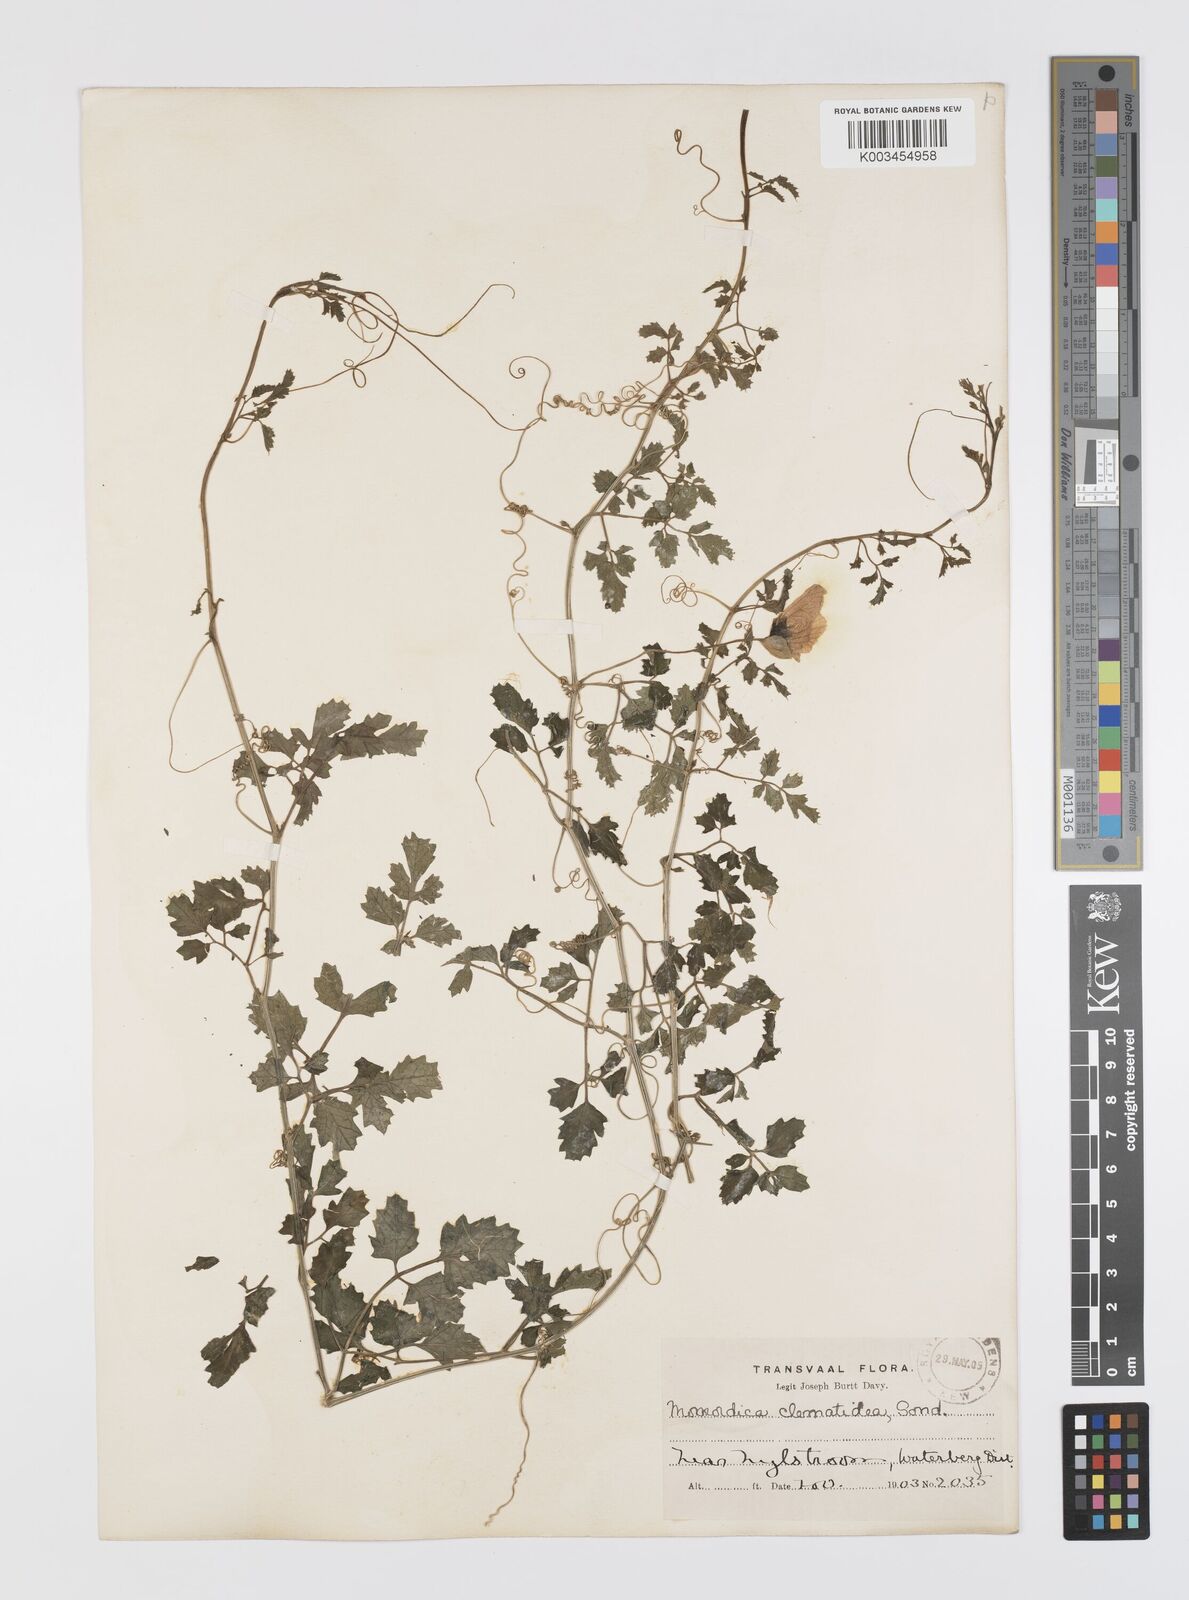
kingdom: Plantae
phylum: Tracheophyta
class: Magnoliopsida
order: Cucurbitales
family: Cucurbitaceae
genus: Momordica
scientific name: Momordica cardiospermoides
